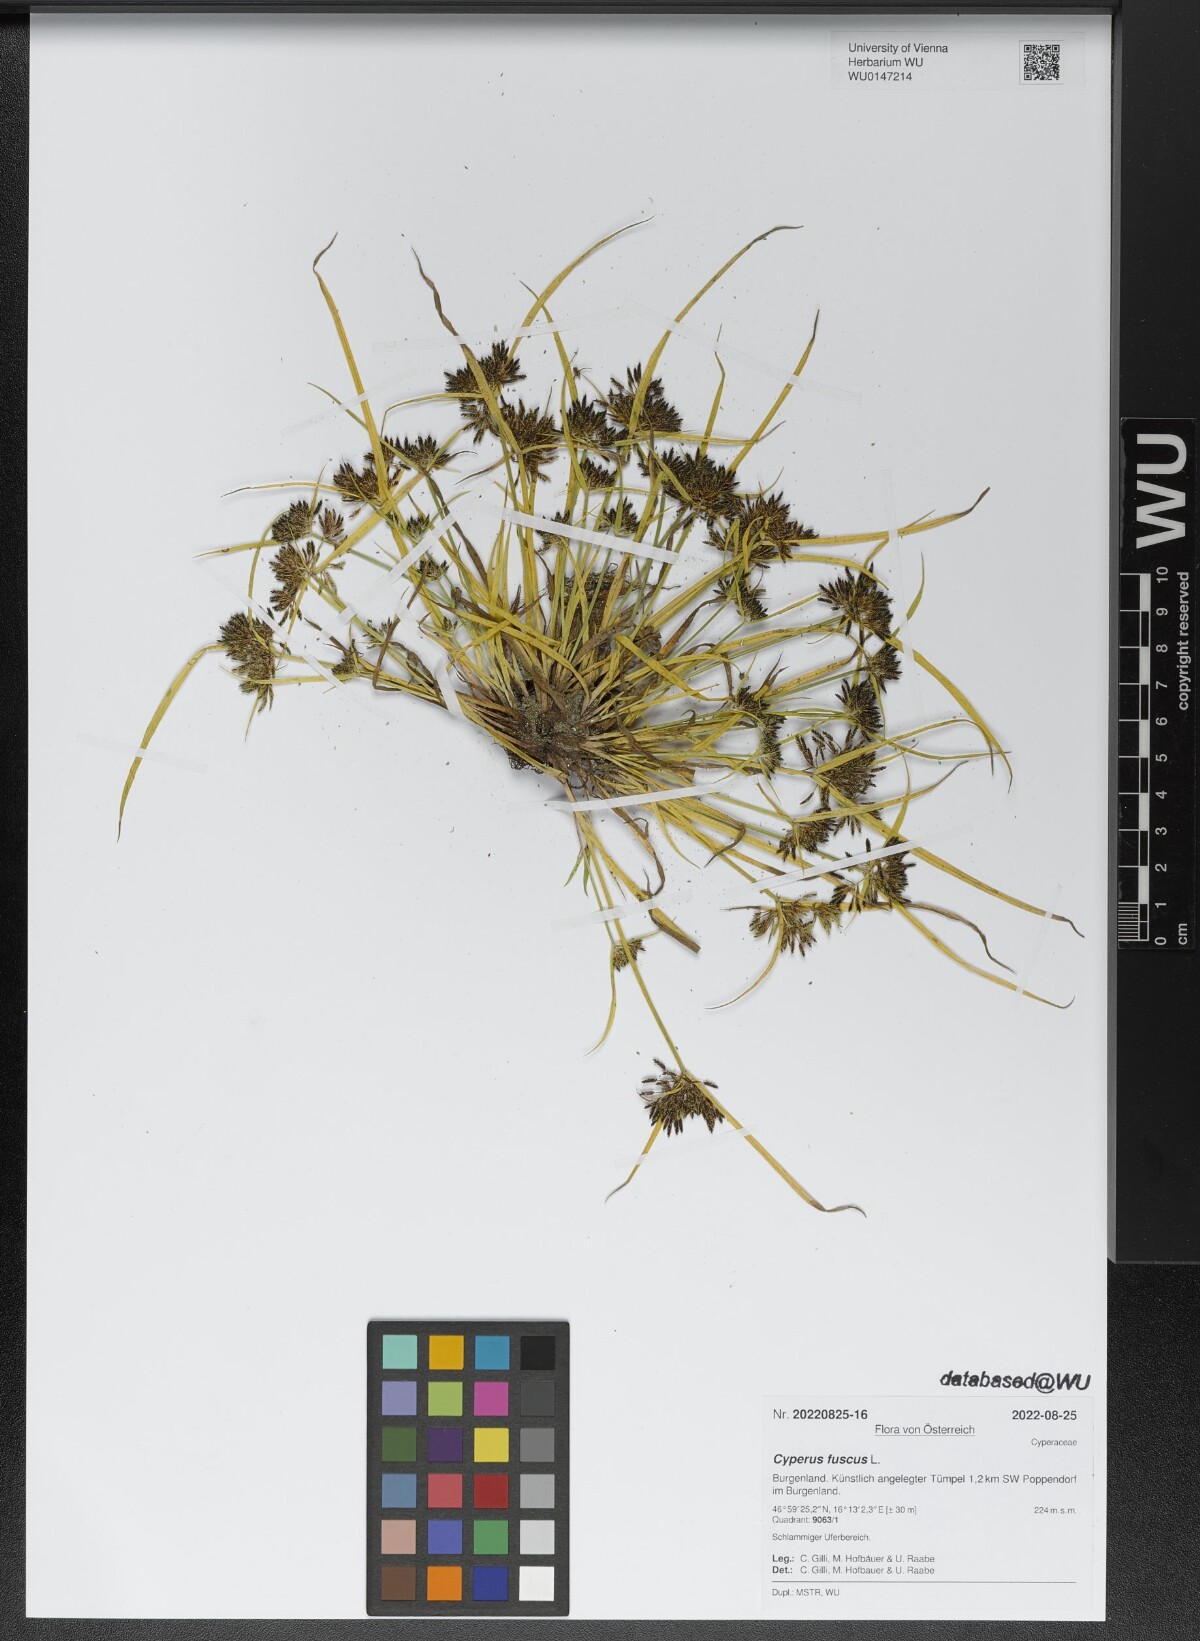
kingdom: Plantae
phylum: Tracheophyta
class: Liliopsida
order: Poales
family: Cyperaceae
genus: Cyperus
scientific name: Cyperus fuscus
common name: Brown galingale
